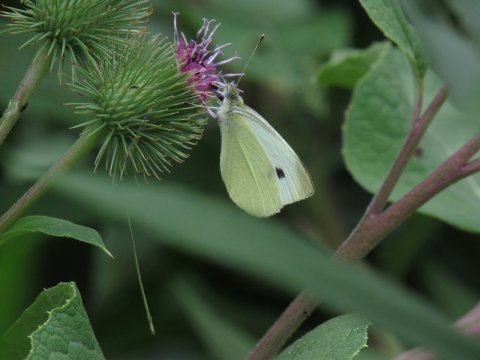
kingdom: Animalia
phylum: Arthropoda
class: Insecta
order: Lepidoptera
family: Pieridae
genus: Pieris
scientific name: Pieris rapae
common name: Cabbage White
